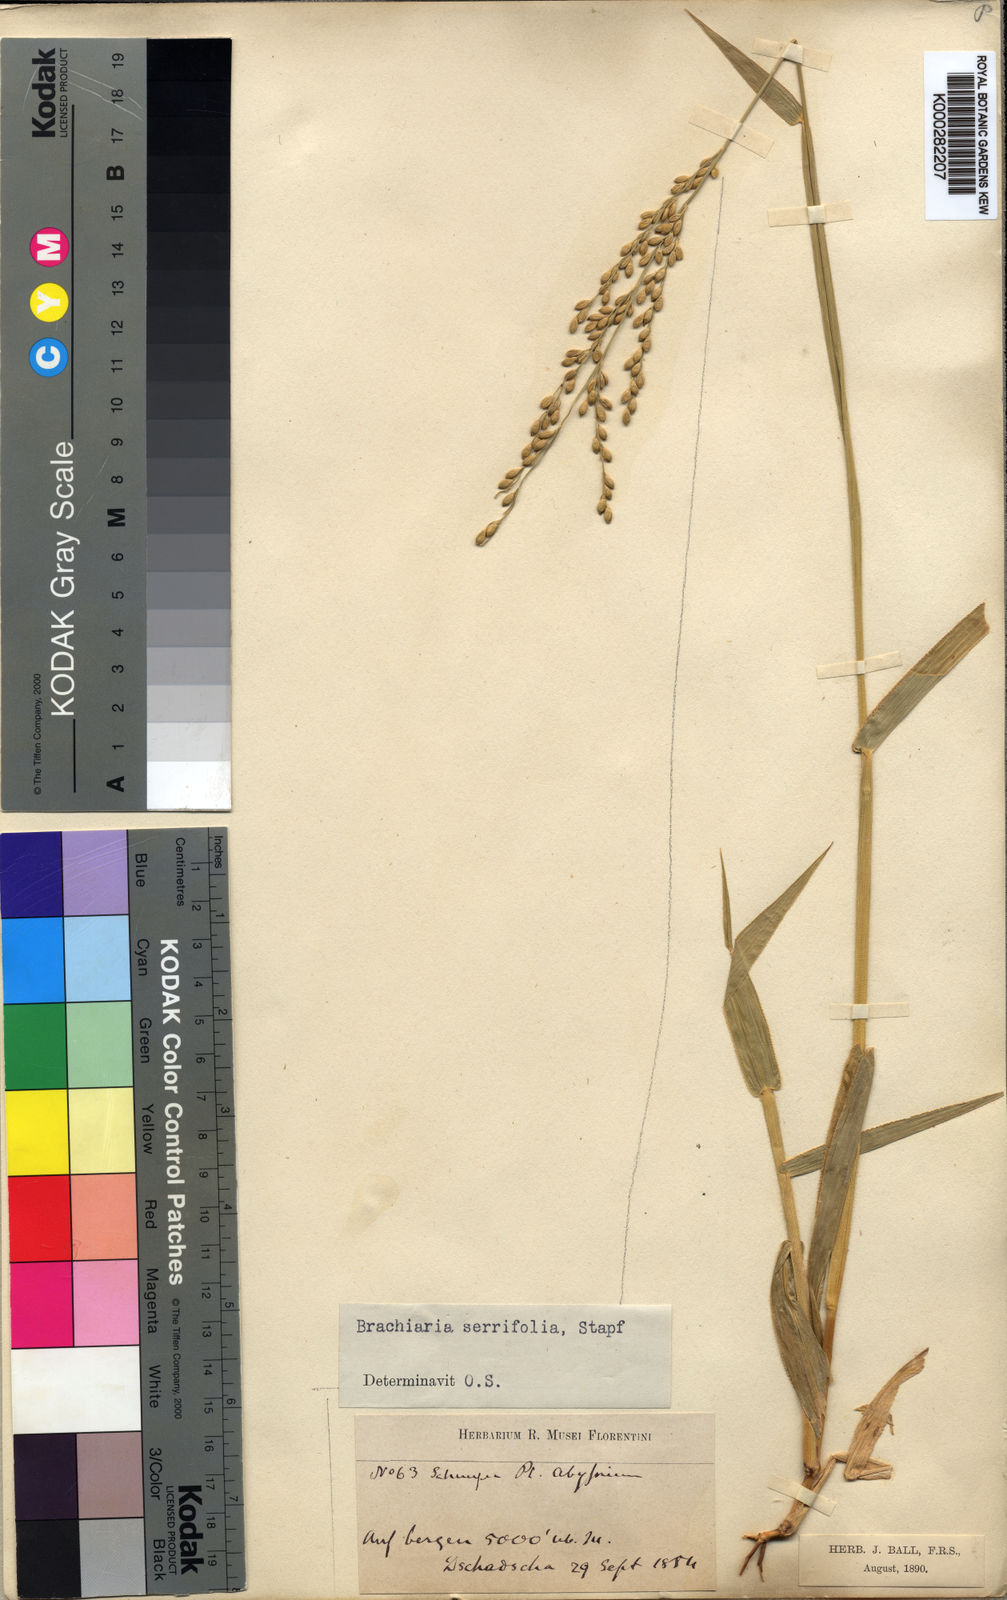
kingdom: Plantae
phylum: Tracheophyta
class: Liliopsida
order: Poales
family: Poaceae
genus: Urochloa
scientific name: Urochloa serrifolia
